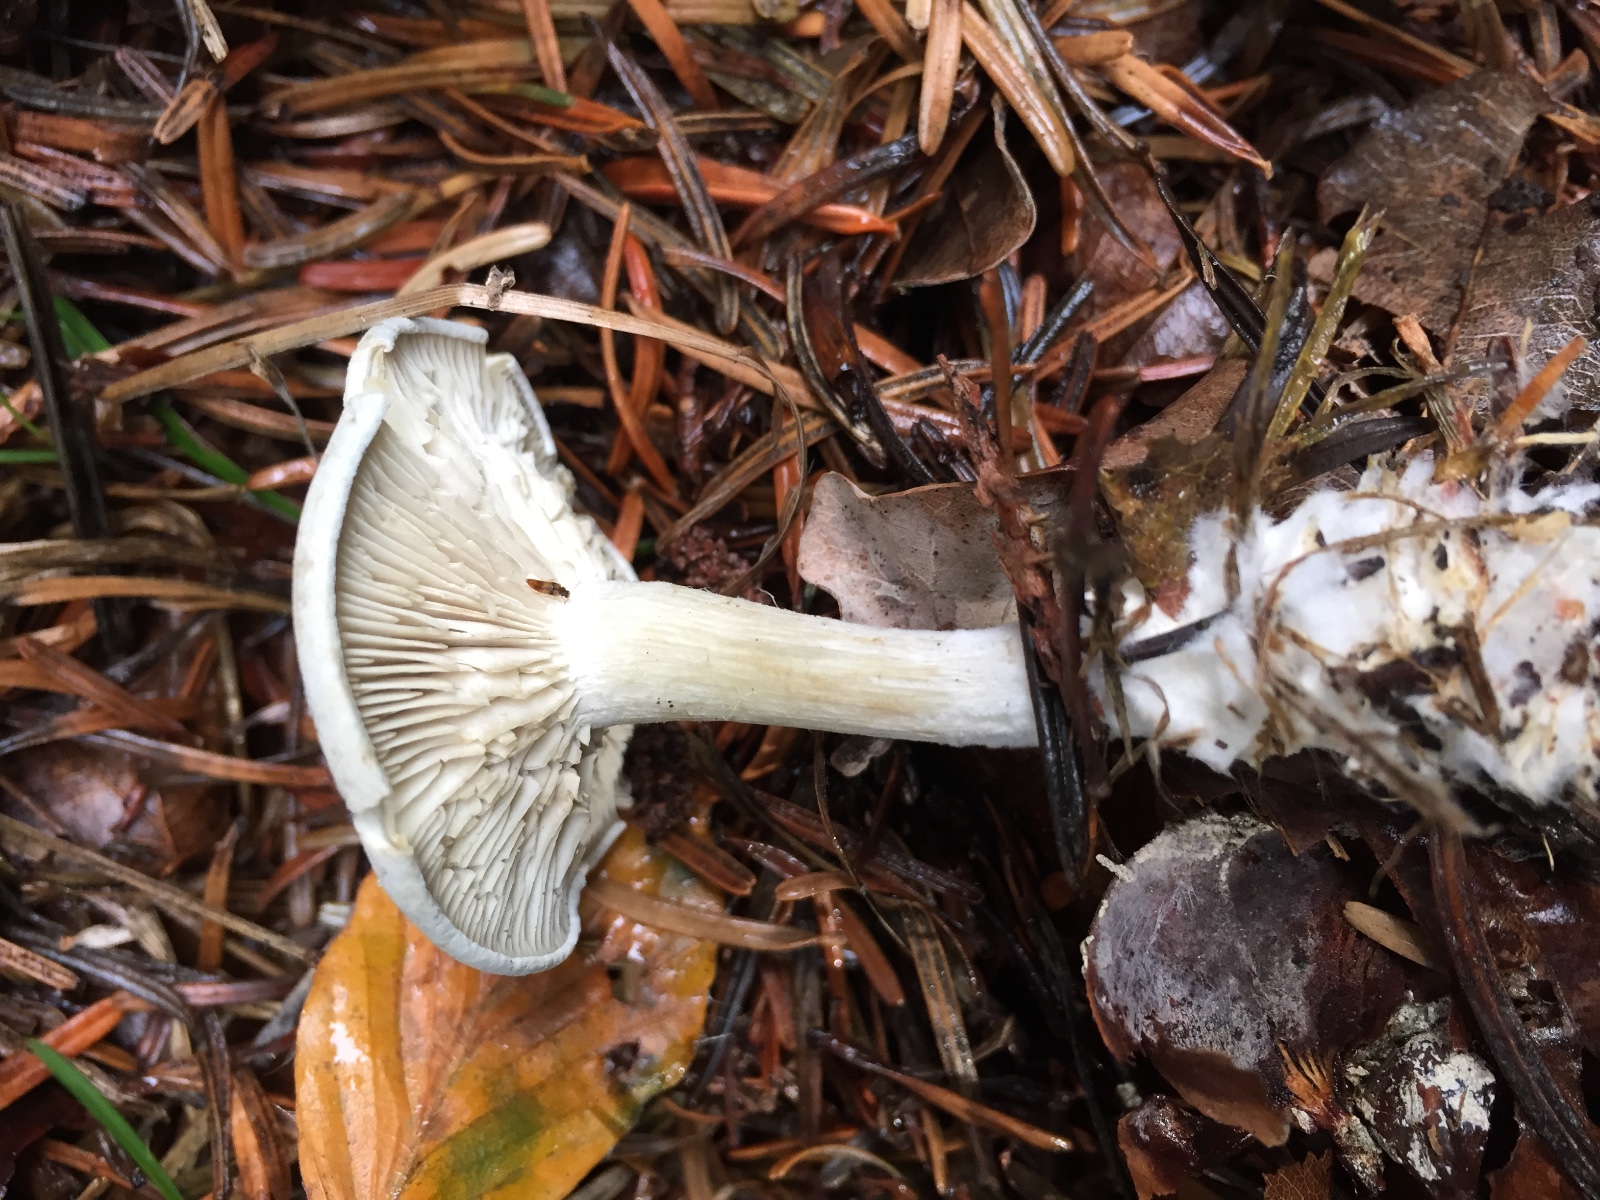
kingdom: Fungi
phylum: Basidiomycota
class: Agaricomycetes
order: Agaricales
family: Tricholomataceae
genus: Clitocybe
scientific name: Clitocybe odora
